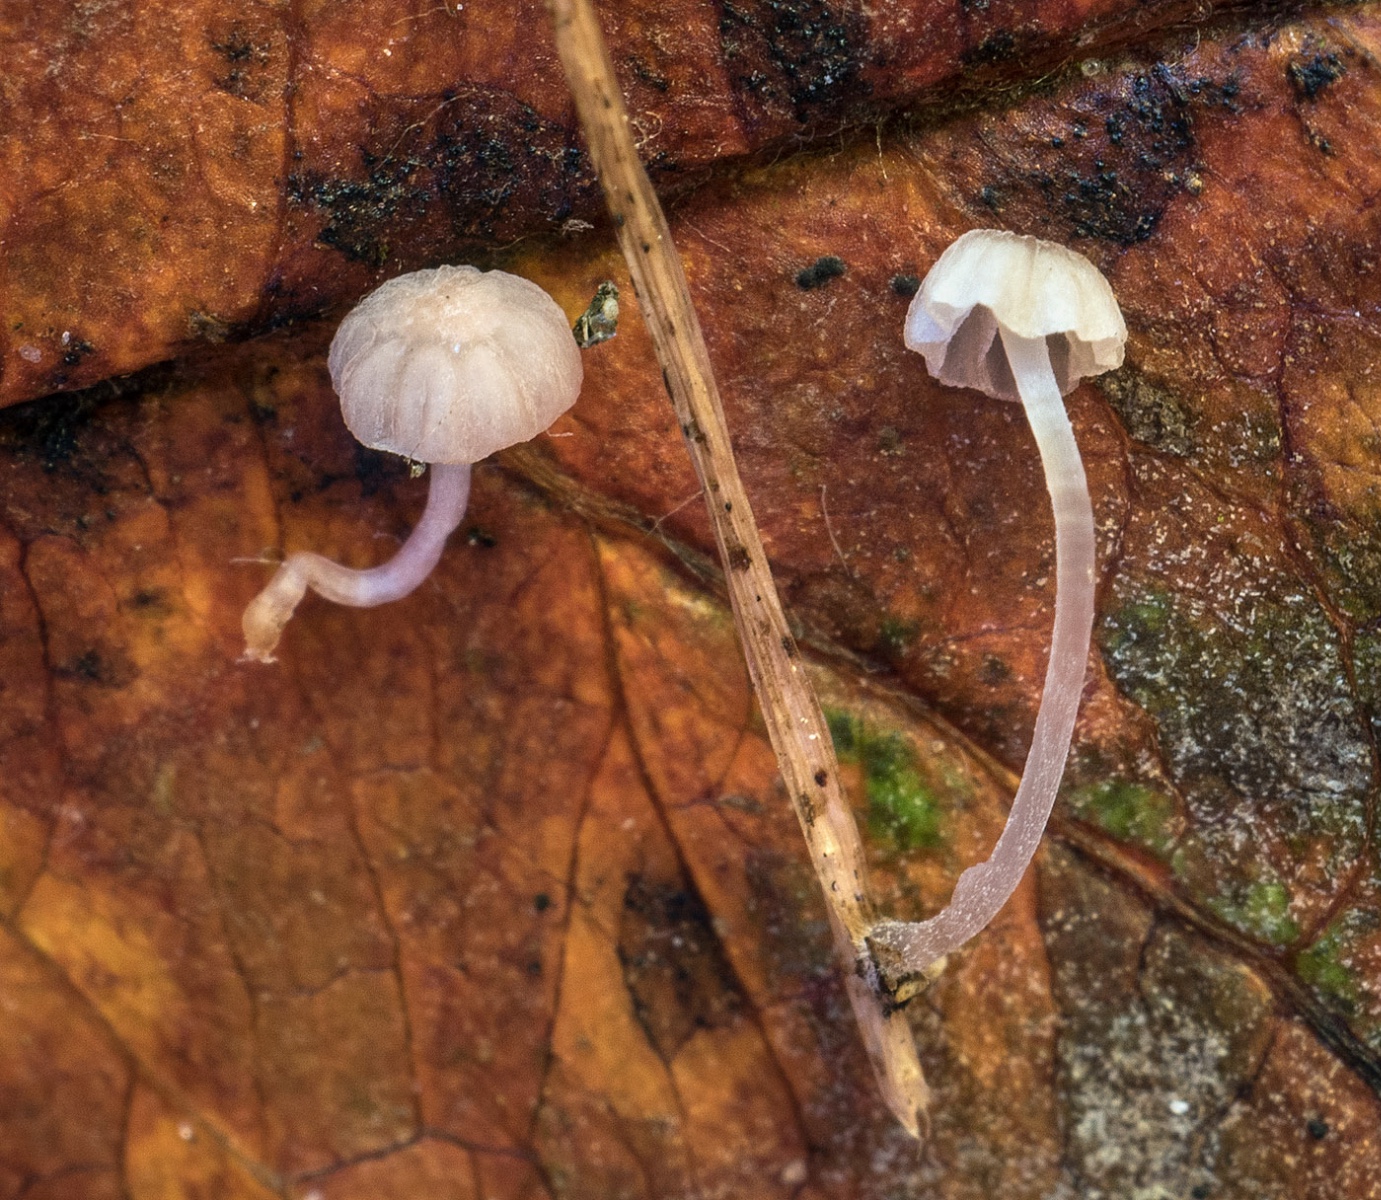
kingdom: Fungi
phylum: Basidiomycota
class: Agaricomycetes
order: Agaricales
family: Mycenaceae
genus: Mycena
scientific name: Mycena tubarioides
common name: mose-huesvamp
